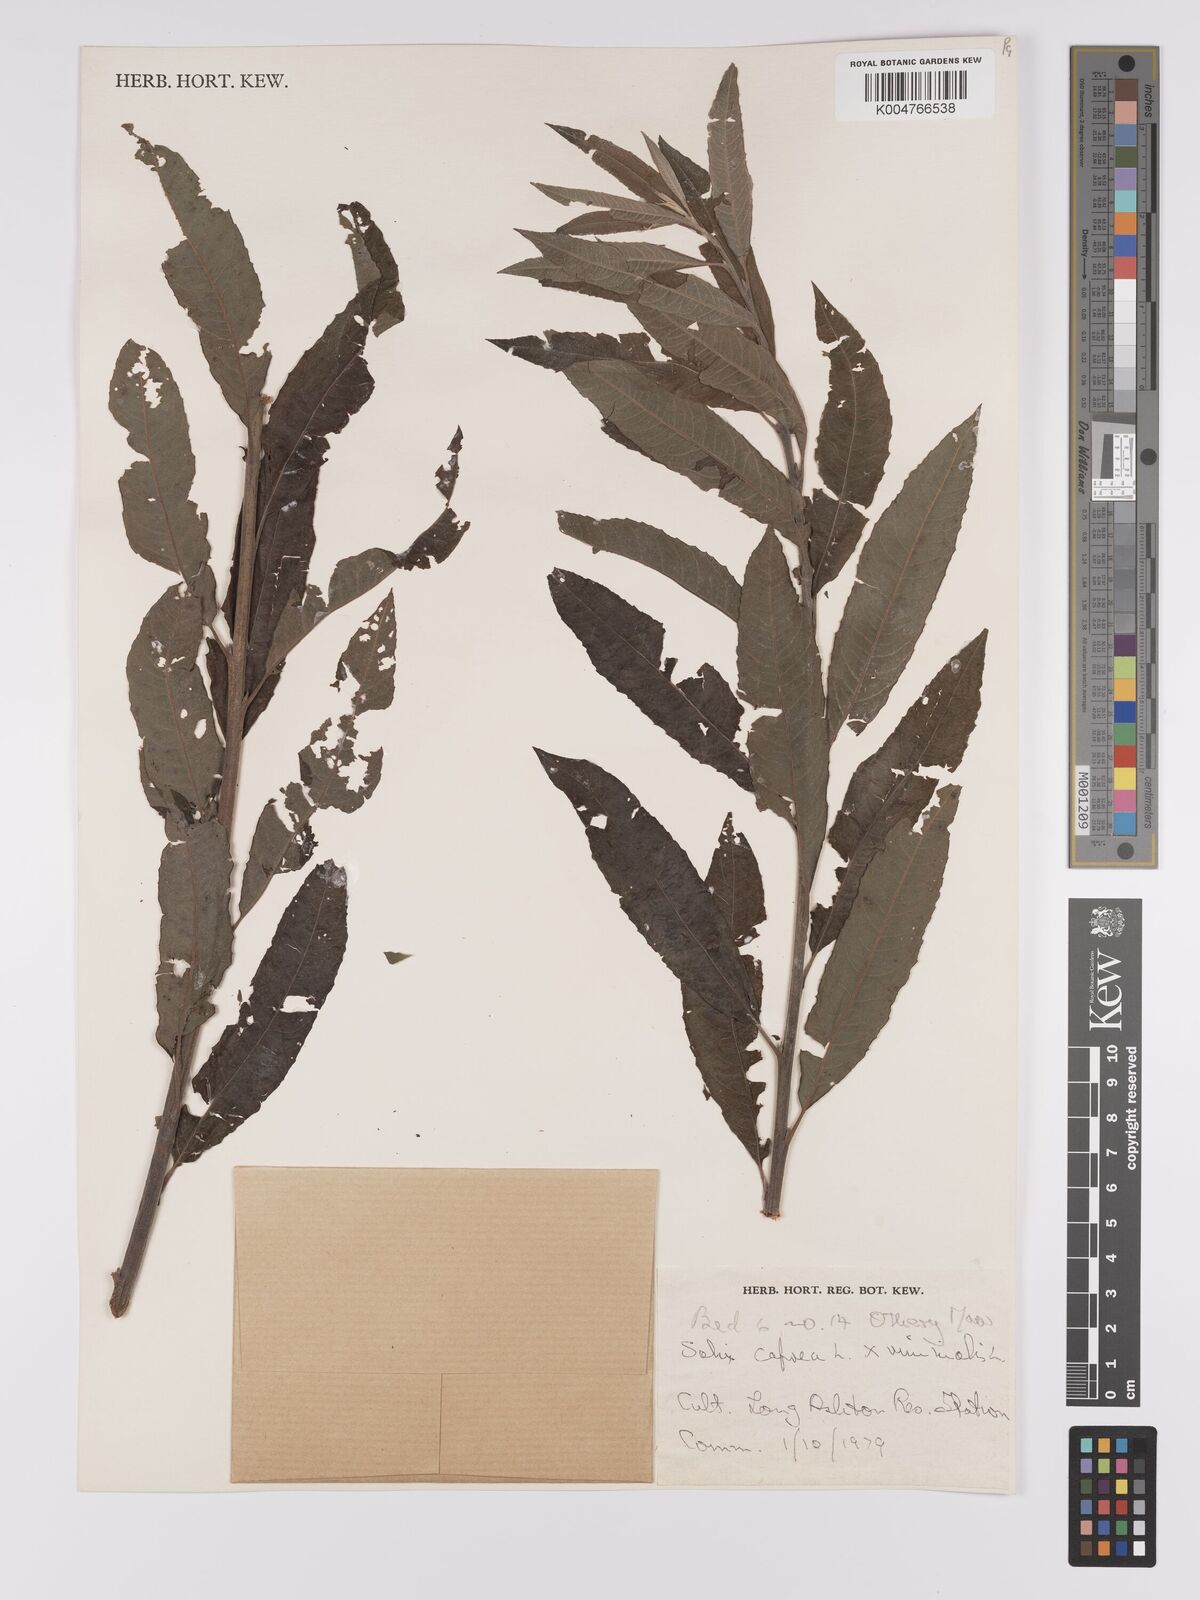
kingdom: Plantae
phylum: Tracheophyta
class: Magnoliopsida
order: Malpighiales
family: Salicaceae
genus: Salix
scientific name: Salix caprea
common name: Goat willow
